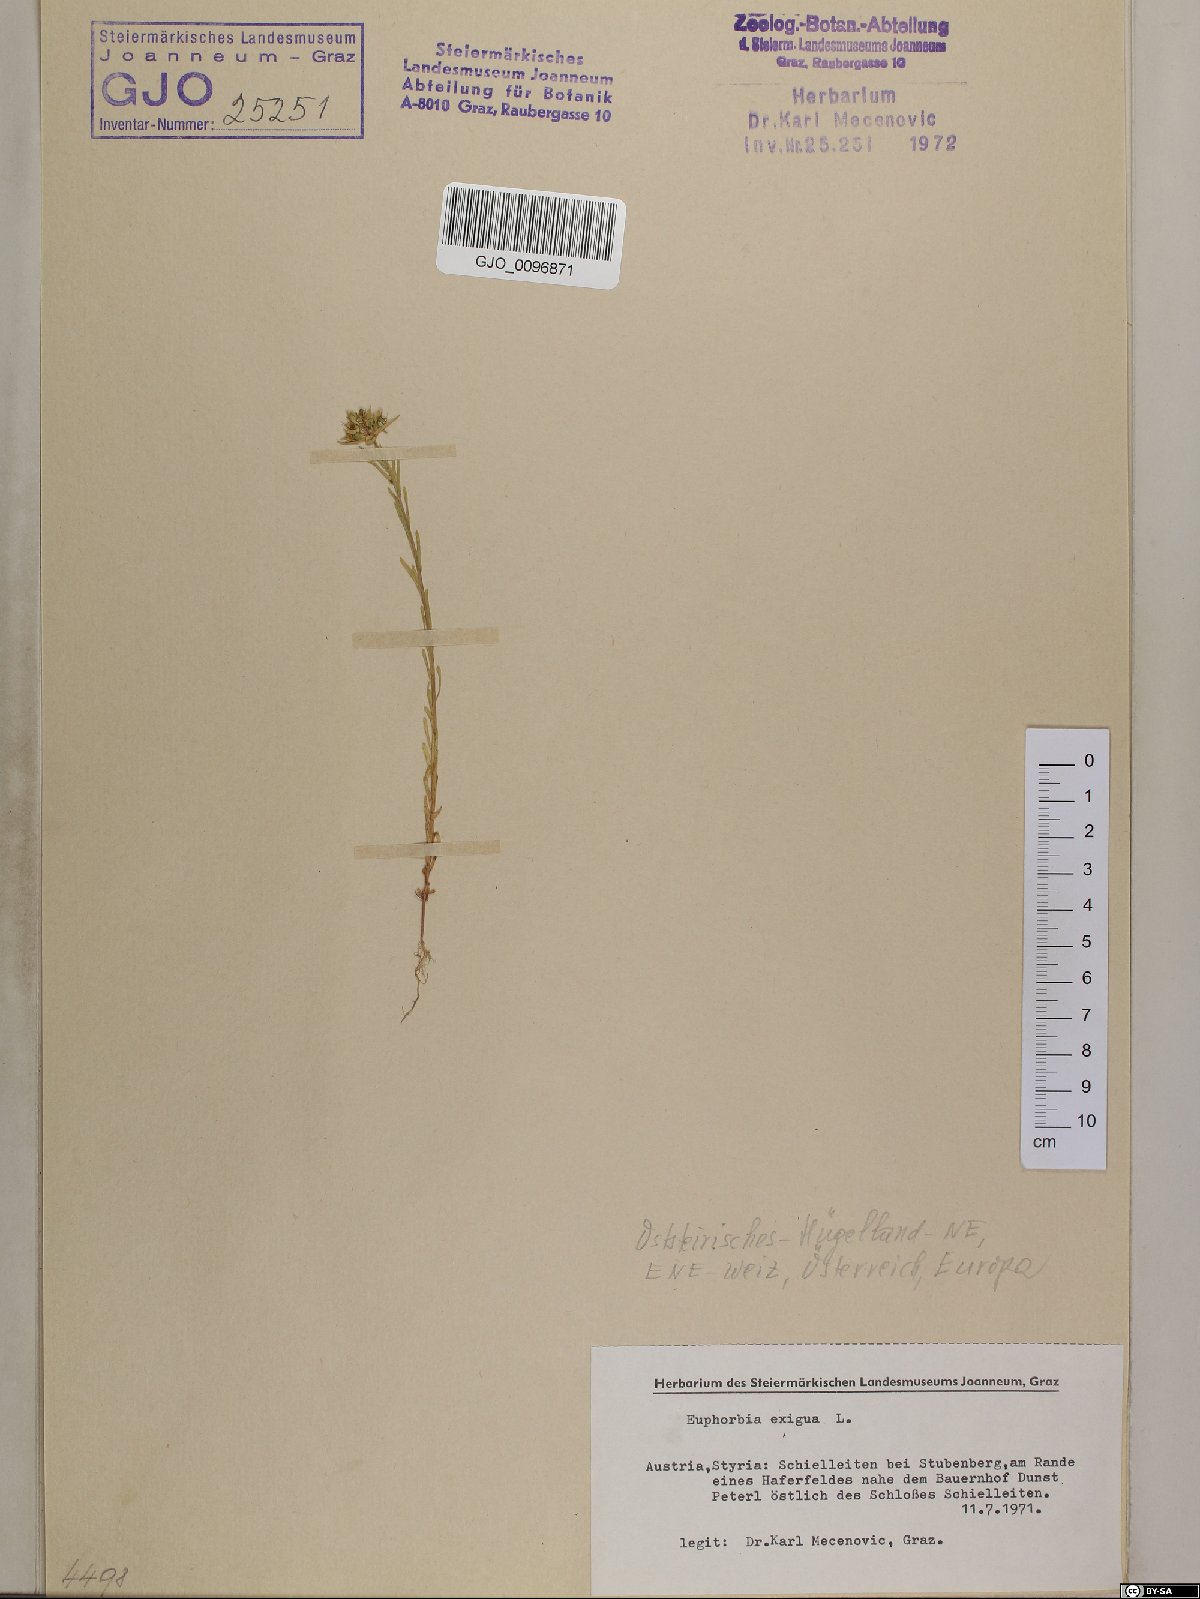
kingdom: Plantae
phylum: Tracheophyta
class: Magnoliopsida
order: Malpighiales
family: Euphorbiaceae
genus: Euphorbia
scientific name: Euphorbia exigua
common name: Dwarf spurge
